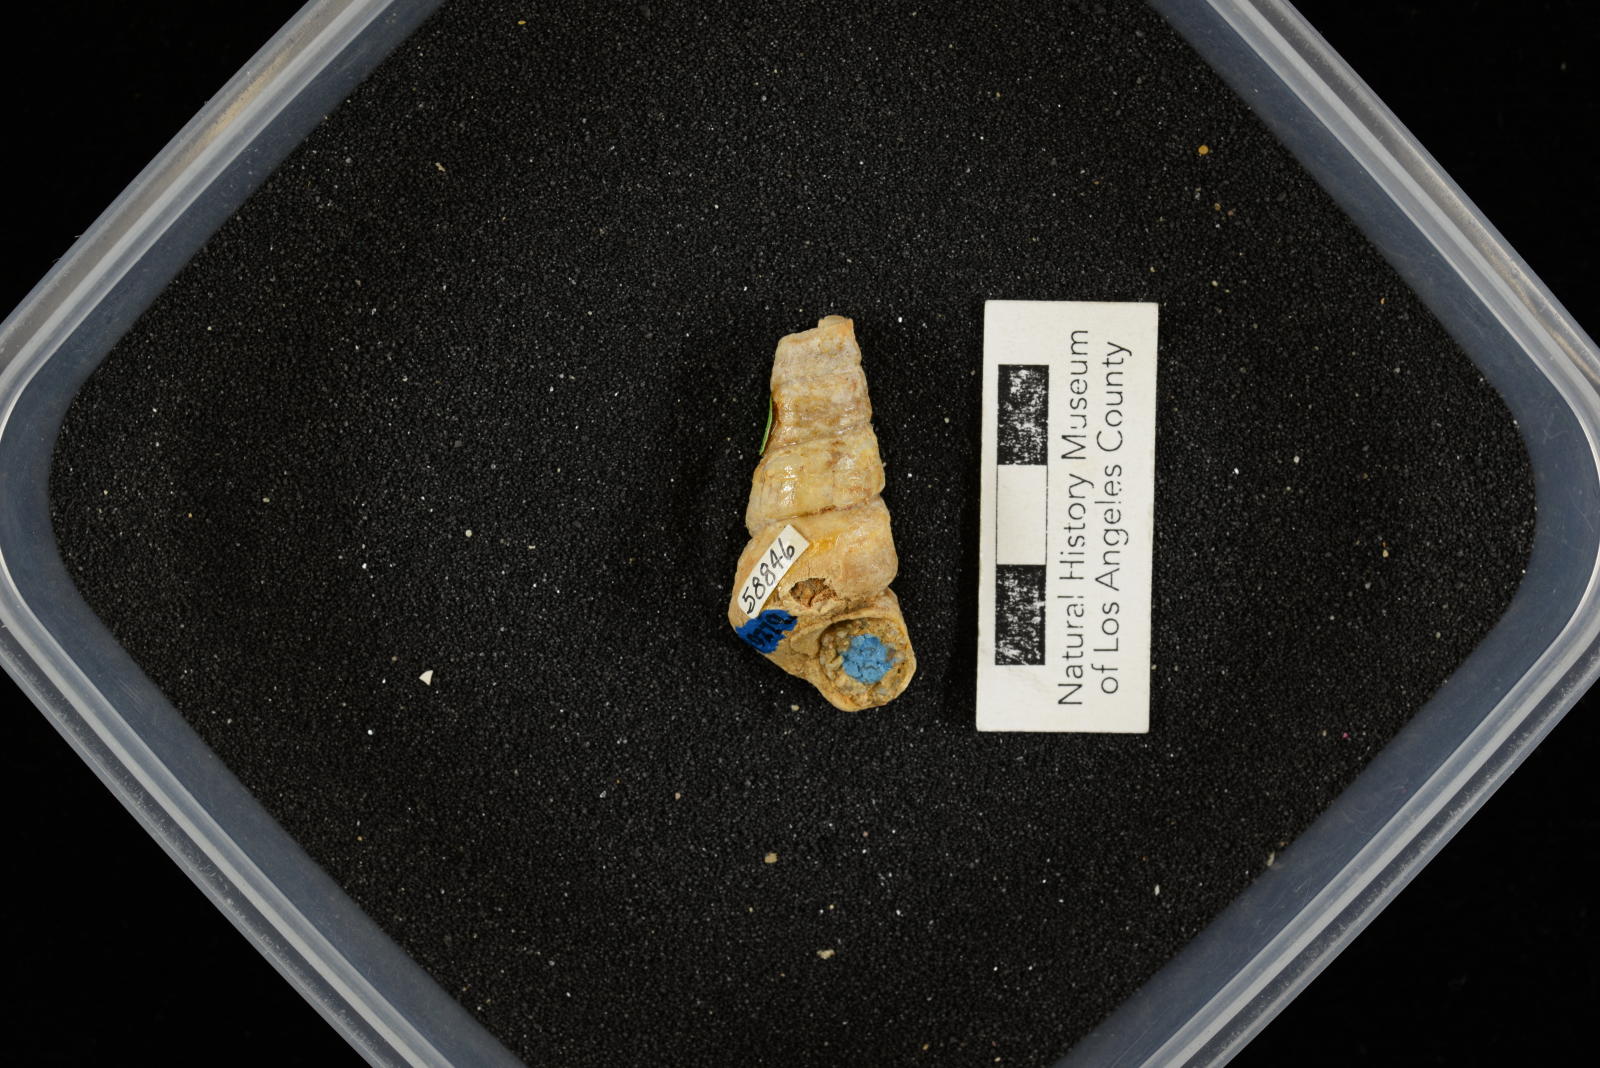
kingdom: Animalia
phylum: Mollusca
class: Gastropoda
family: Turritellidae
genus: Turritella
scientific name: Turritella peninsularis
